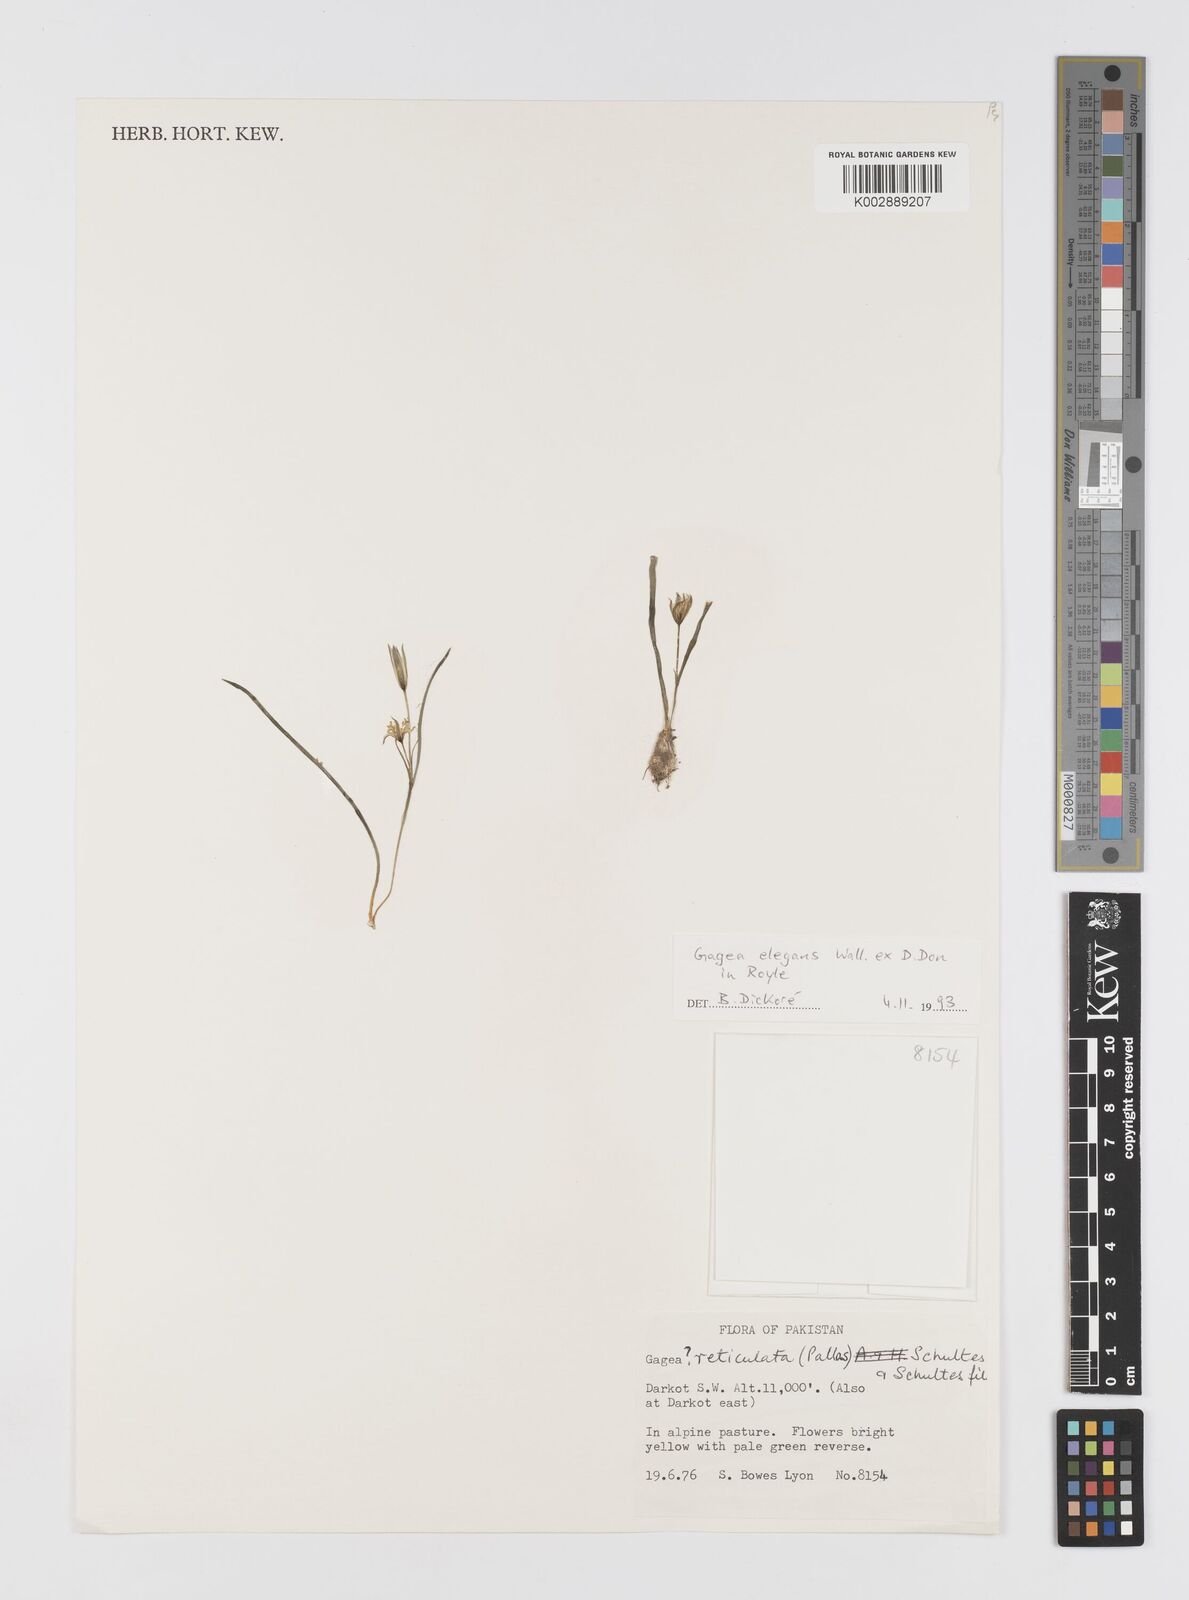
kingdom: Plantae
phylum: Tracheophyta
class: Liliopsida
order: Liliales
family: Liliaceae
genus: Gagea
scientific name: Gagea lutea
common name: Yellow star-of-bethlehem
